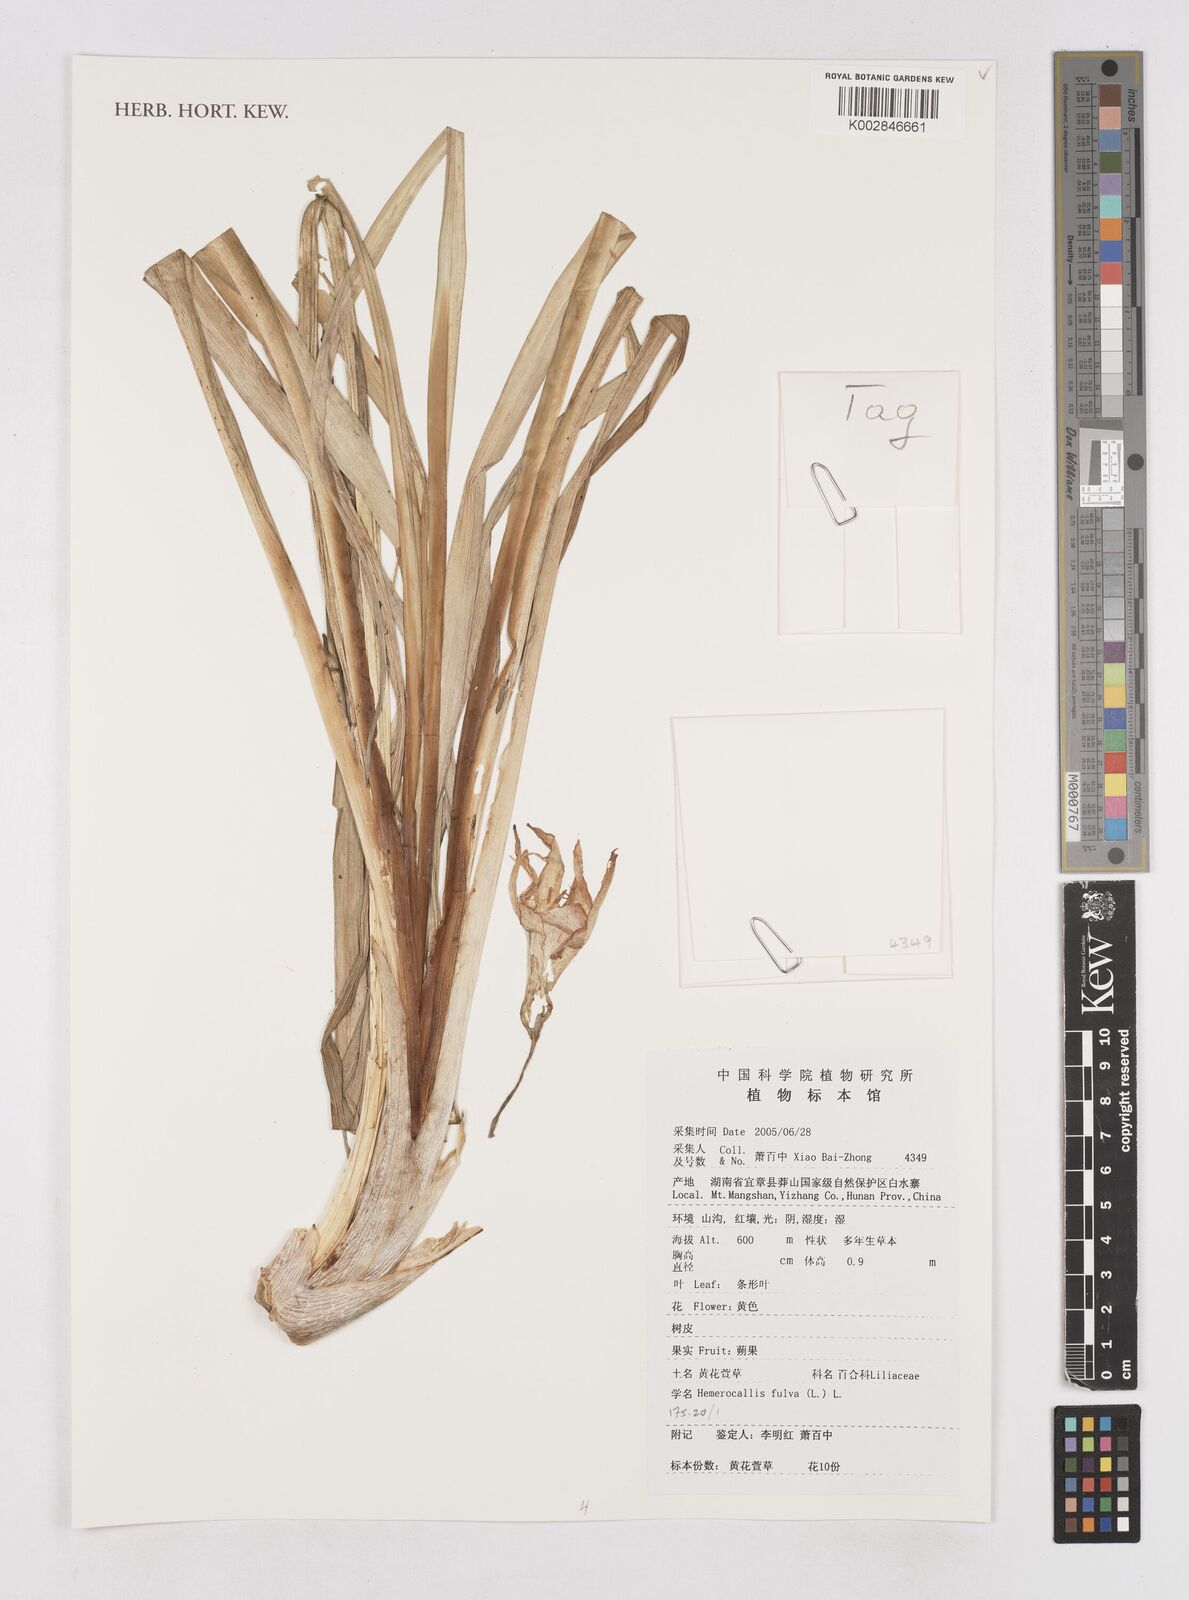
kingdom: Plantae
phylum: Tracheophyta
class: Liliopsida
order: Asparagales
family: Asphodelaceae
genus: Hemerocallis
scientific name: Hemerocallis fulva
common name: Orange day-lily
